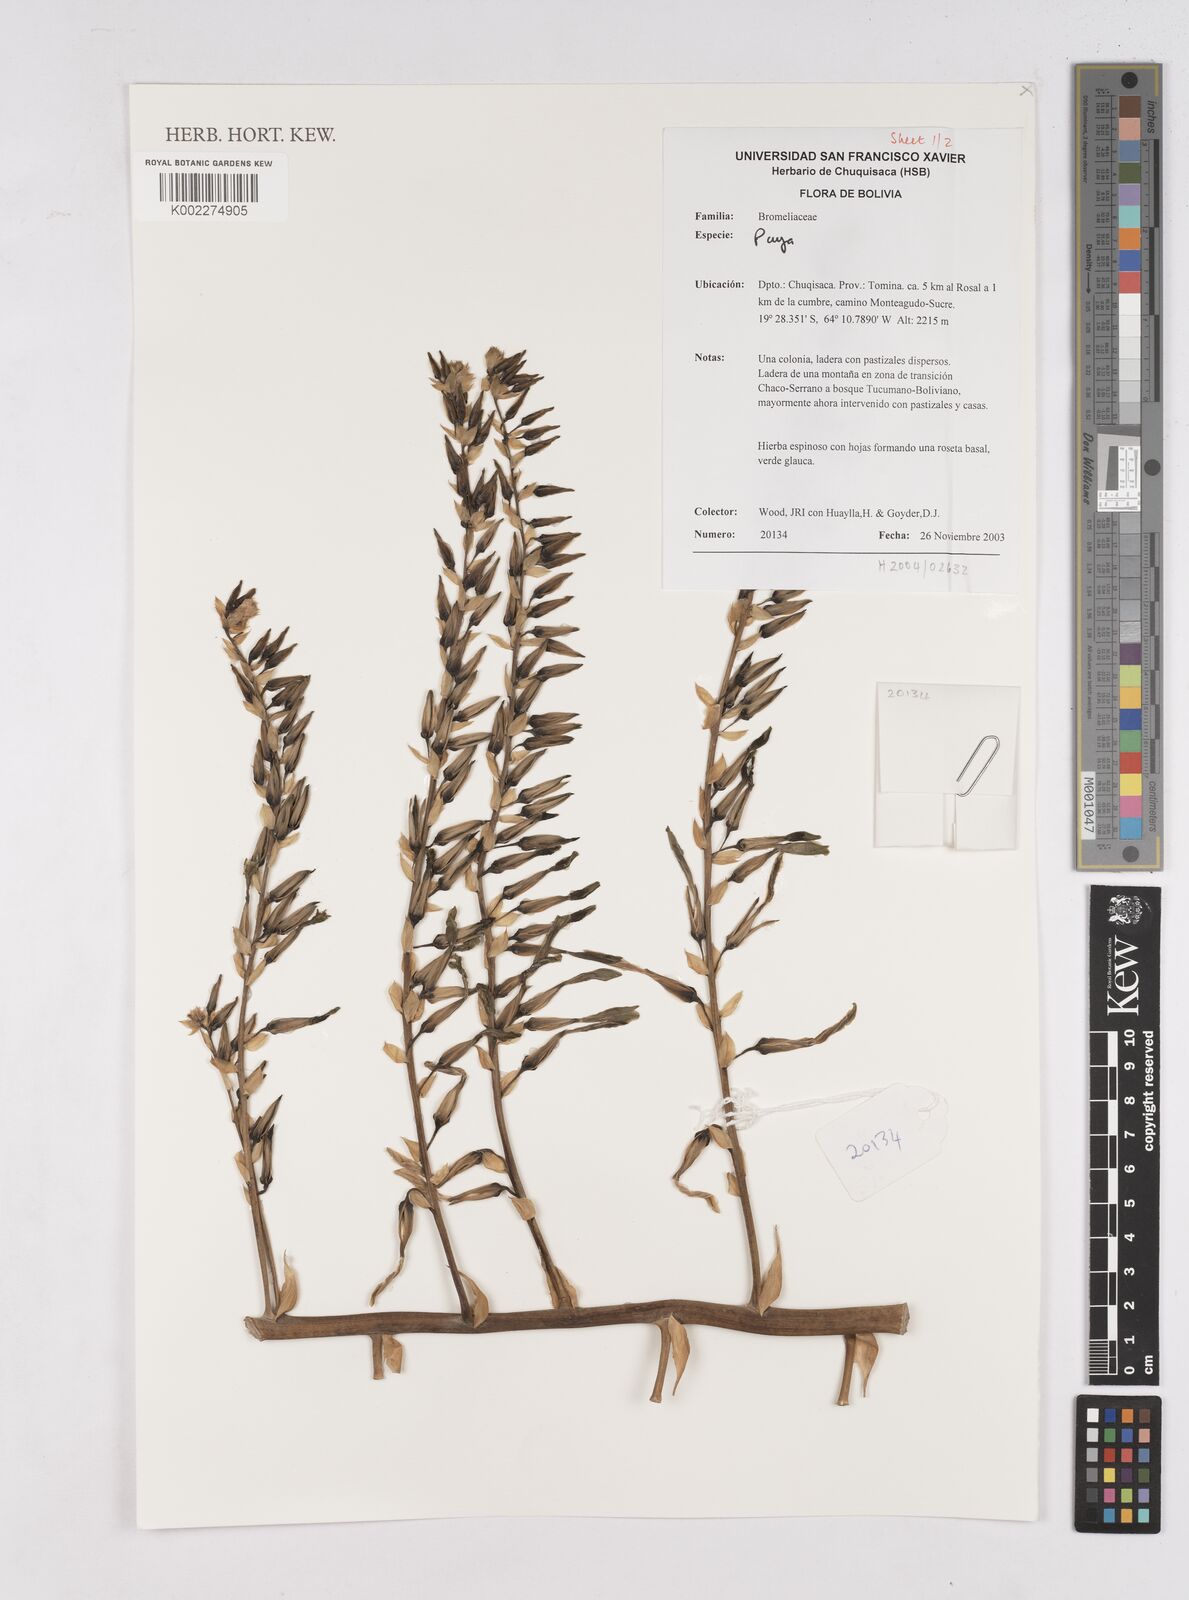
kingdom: Plantae
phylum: Tracheophyta
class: Liliopsida
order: Poales
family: Bromeliaceae
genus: Puya
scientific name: Puya
